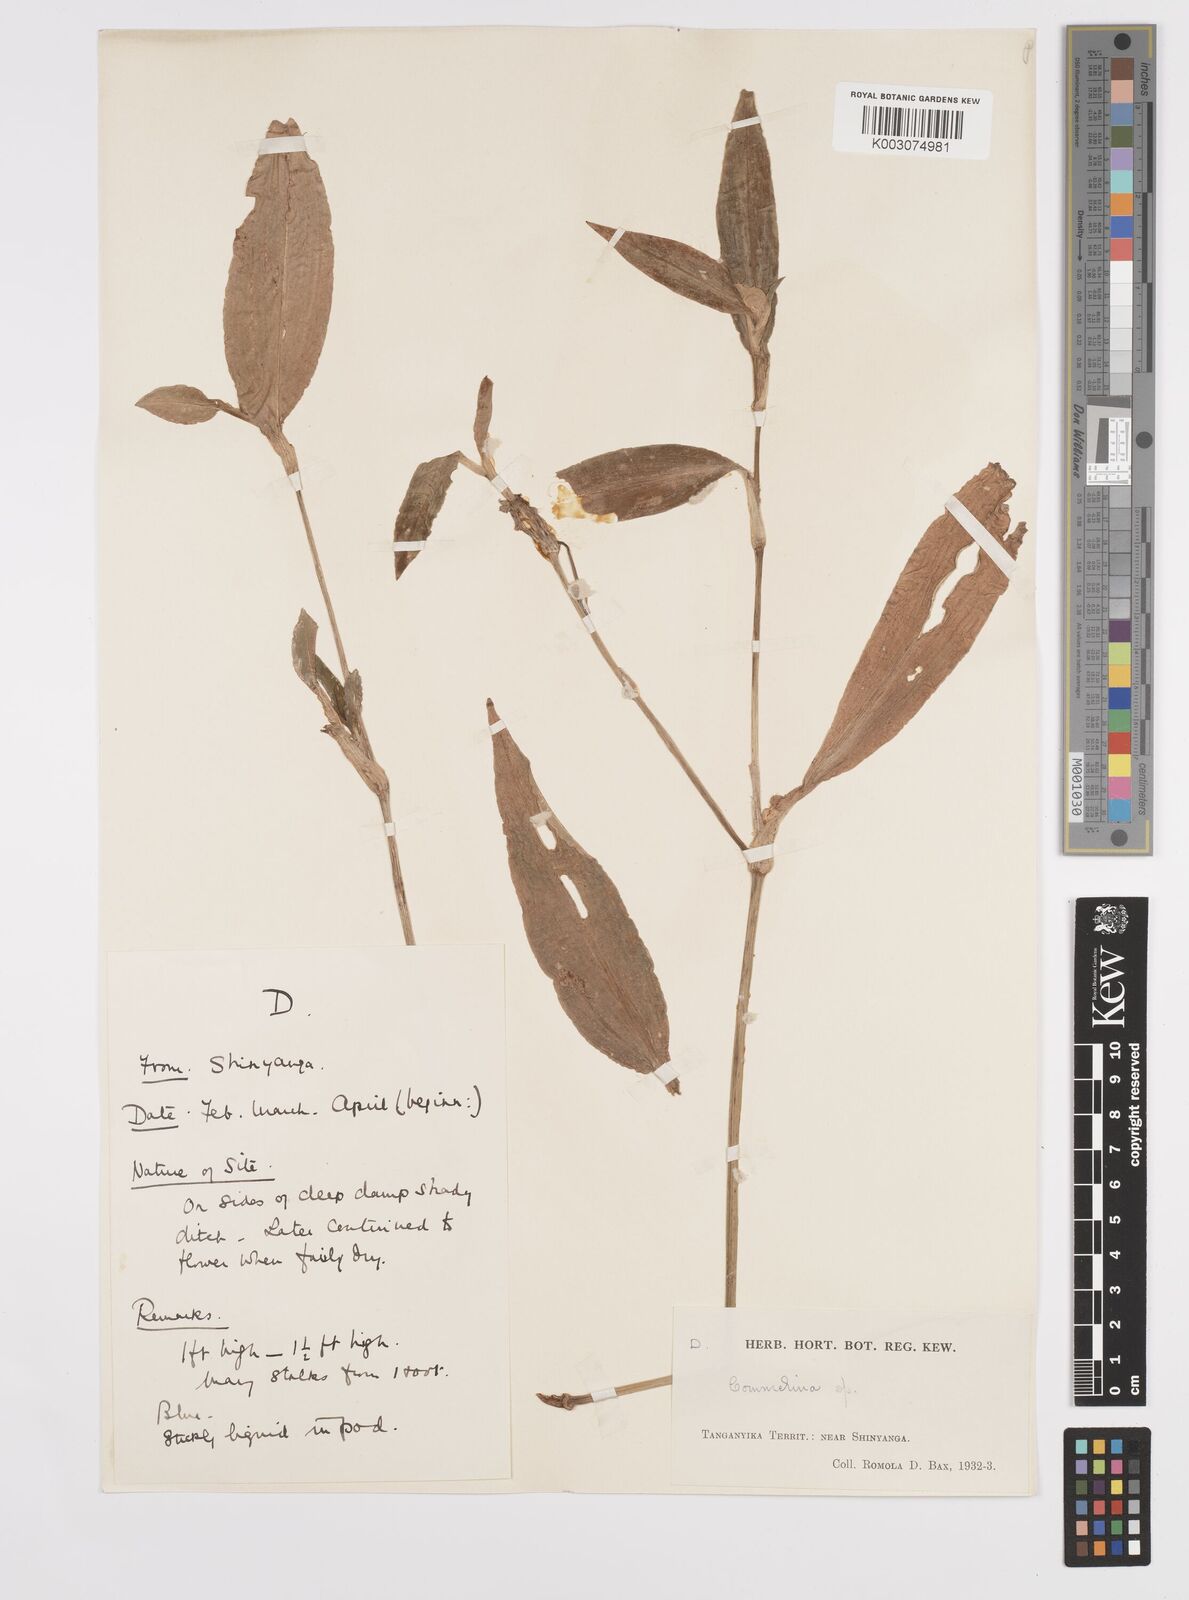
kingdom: Plantae
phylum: Tracheophyta
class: Liliopsida
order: Commelinales
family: Commelinaceae
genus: Commelina
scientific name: Commelina
